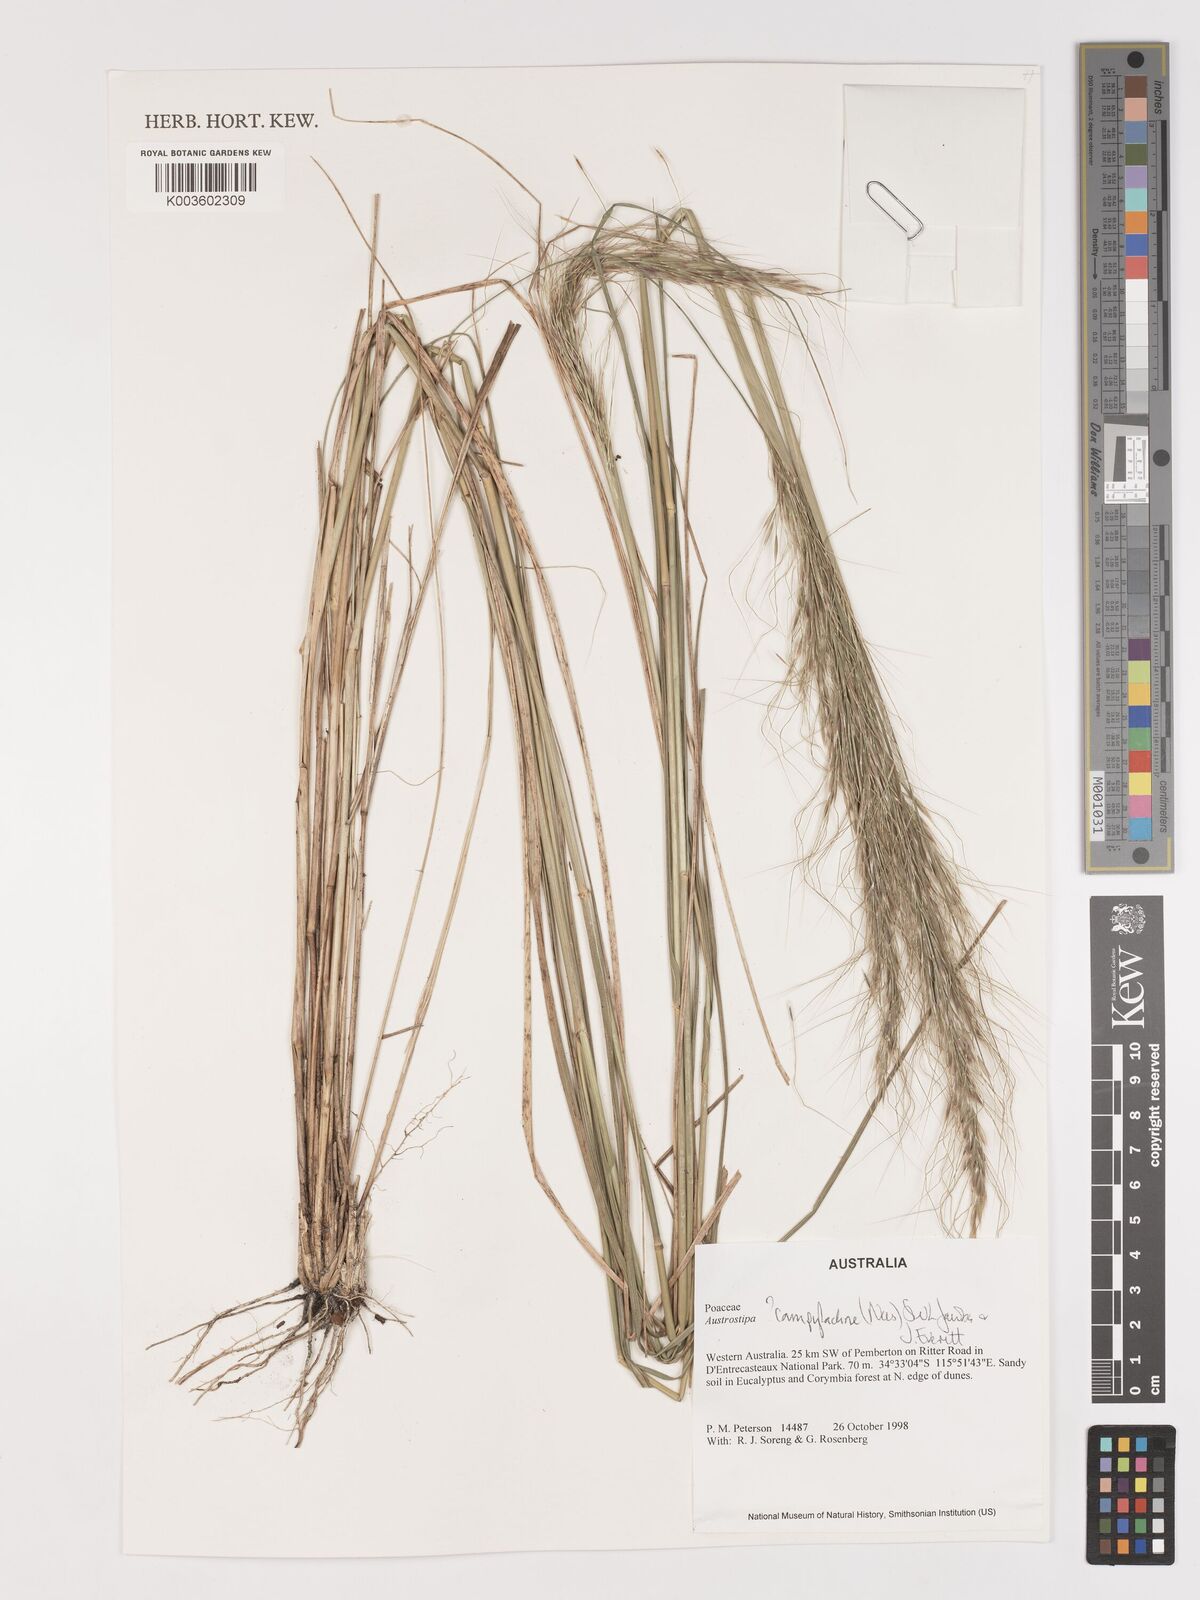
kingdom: Plantae
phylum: Tracheophyta
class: Liliopsida
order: Poales
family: Poaceae
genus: Austrostipa
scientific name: Austrostipa campylachne
